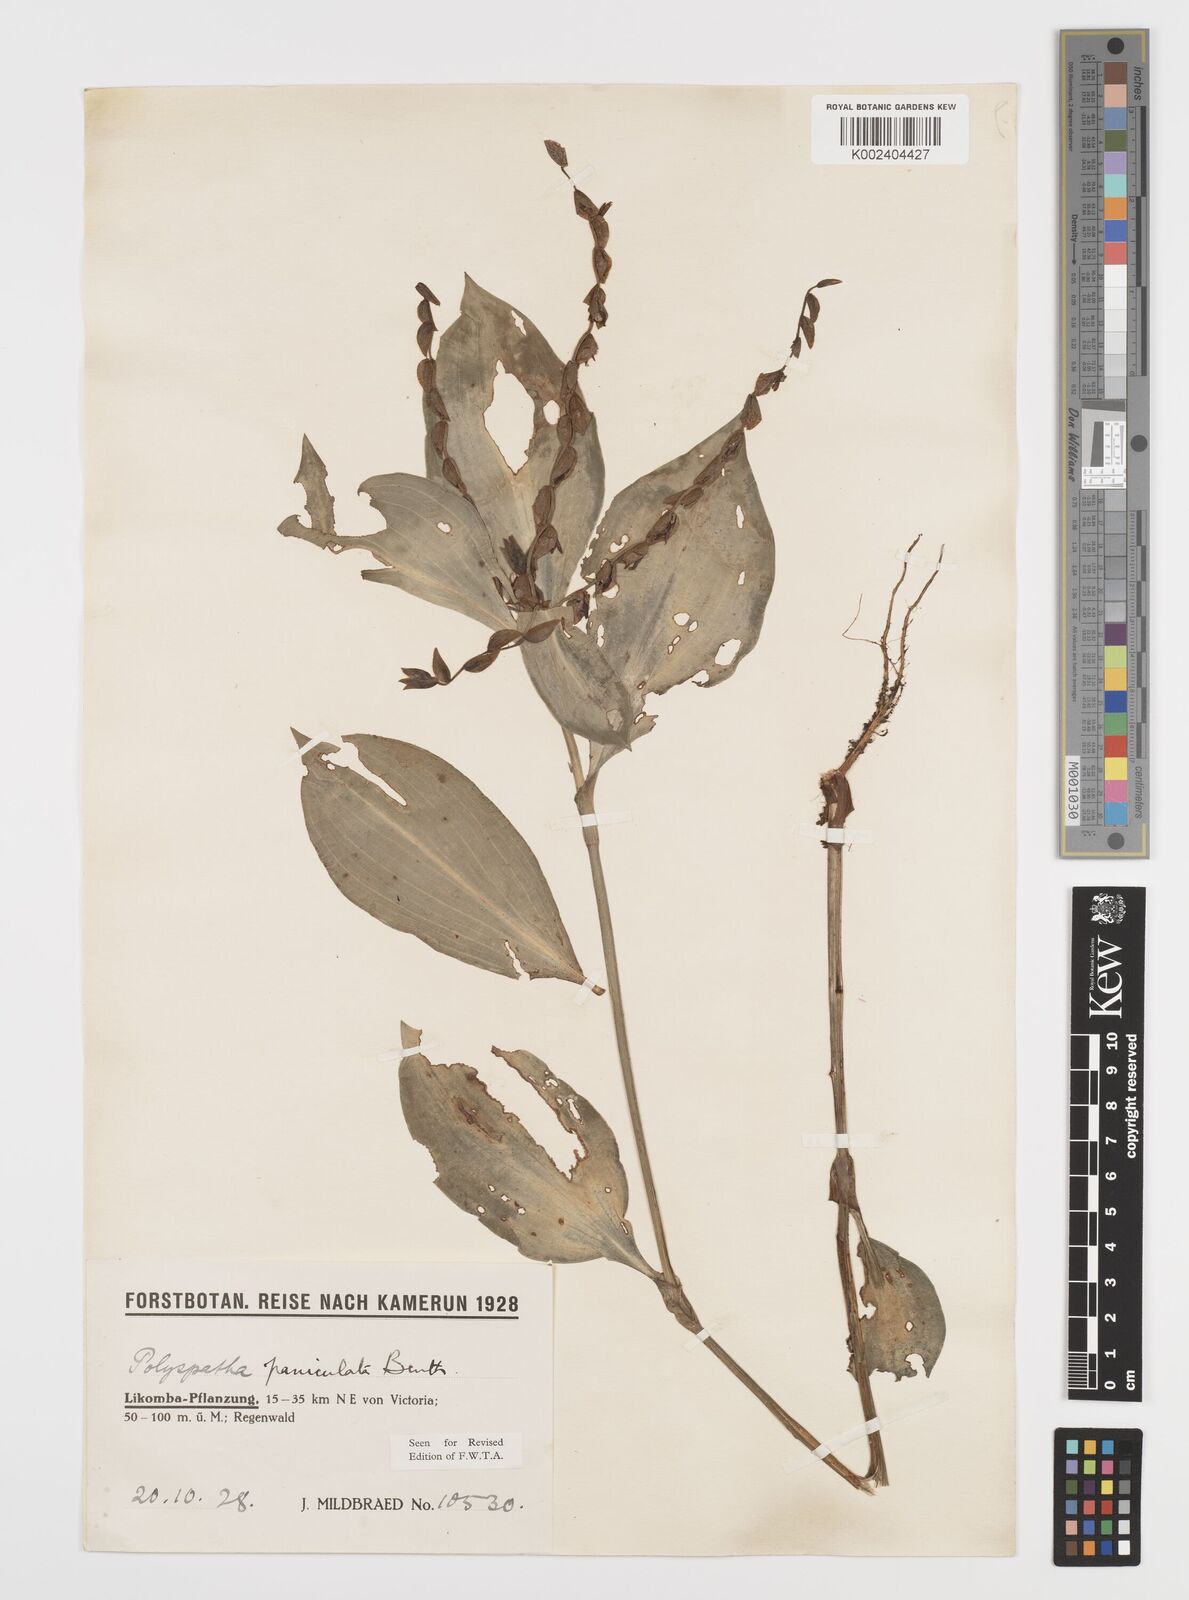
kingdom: Plantae
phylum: Tracheophyta
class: Liliopsida
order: Commelinales
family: Commelinaceae
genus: Polyspatha
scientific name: Polyspatha paniculata
